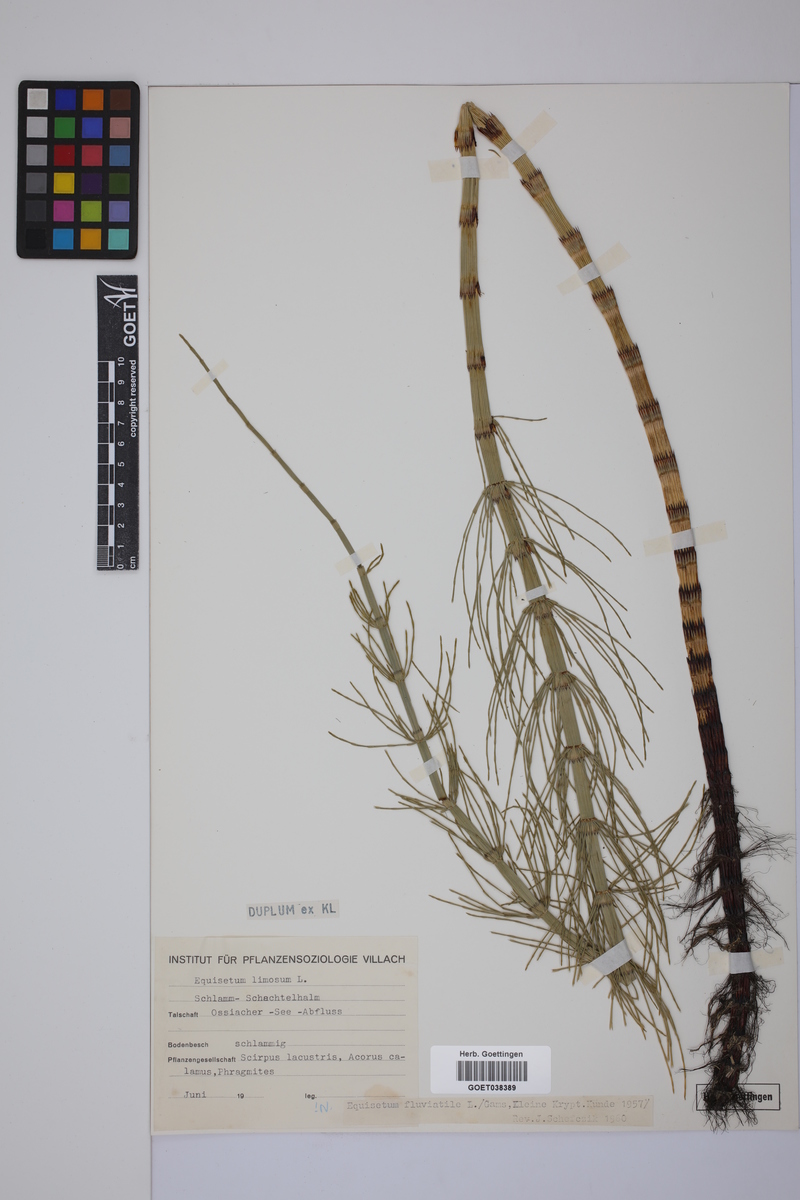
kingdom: Plantae
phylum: Tracheophyta
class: Polypodiopsida
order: Equisetales
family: Equisetaceae
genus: Equisetum
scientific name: Equisetum fluviatile
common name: Water horsetail
